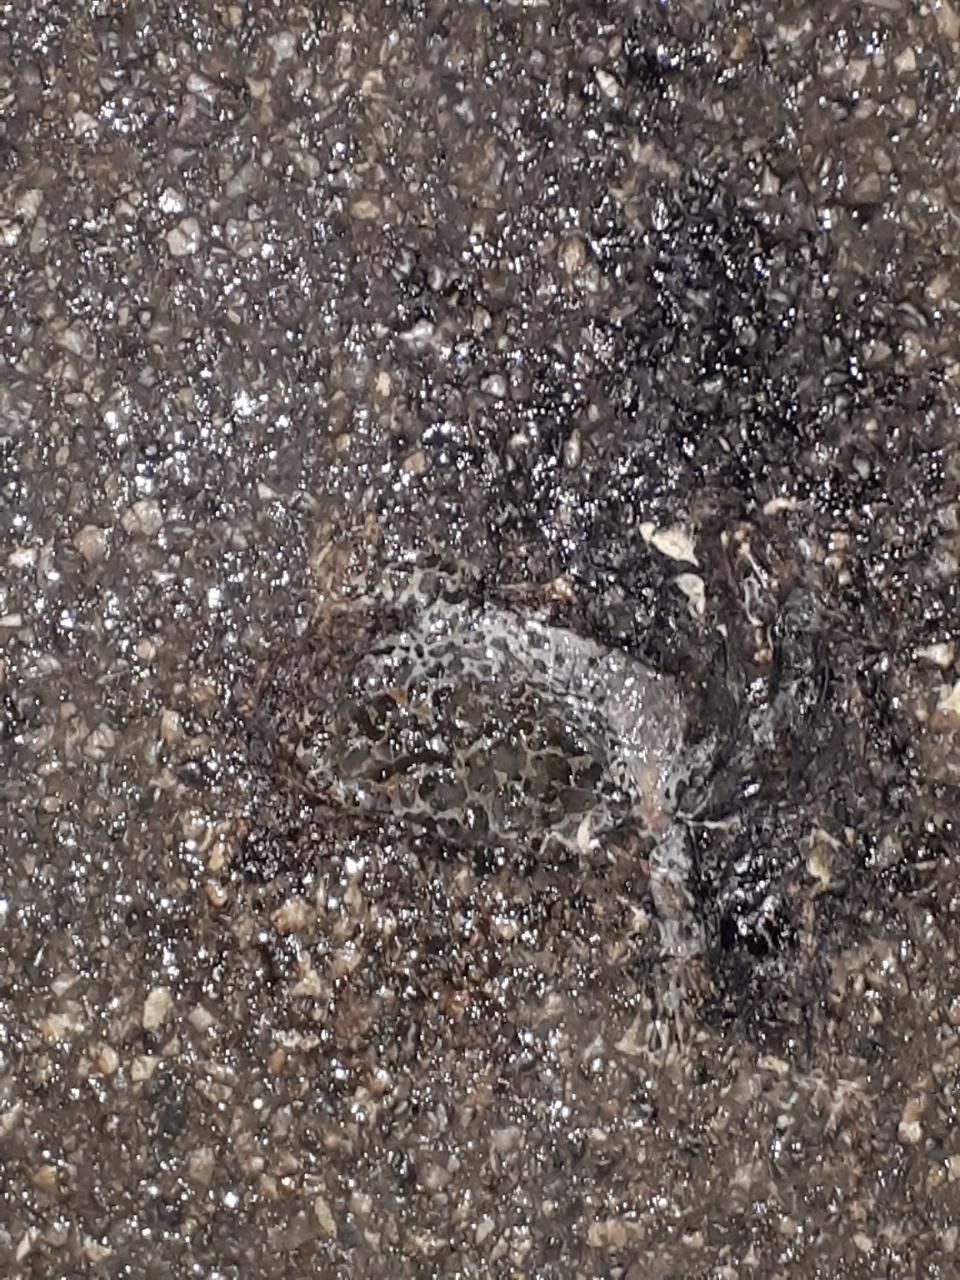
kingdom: Animalia
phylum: Chordata
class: Amphibia
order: Anura
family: Bufonidae
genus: Bufotes
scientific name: Bufotes viridis
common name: European green toad
